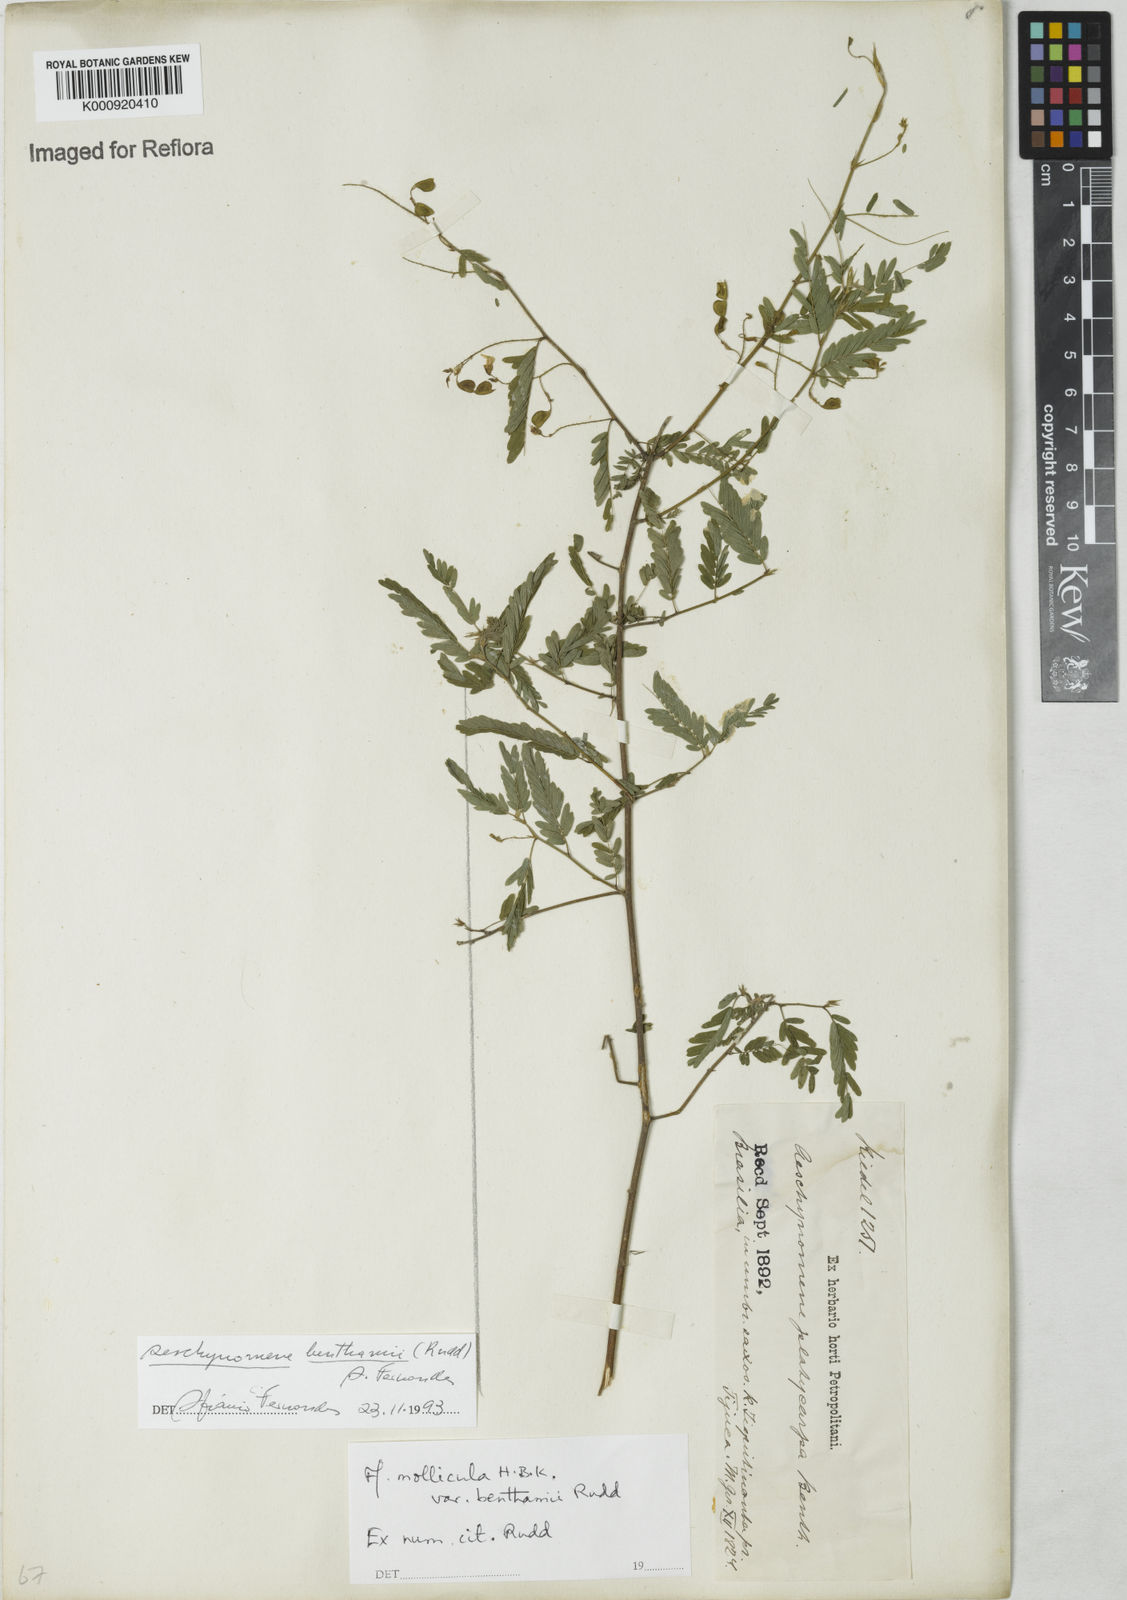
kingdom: Plantae
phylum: Tracheophyta
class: Magnoliopsida
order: Fabales
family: Fabaceae
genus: Ctenodon
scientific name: Ctenodon benthamii
